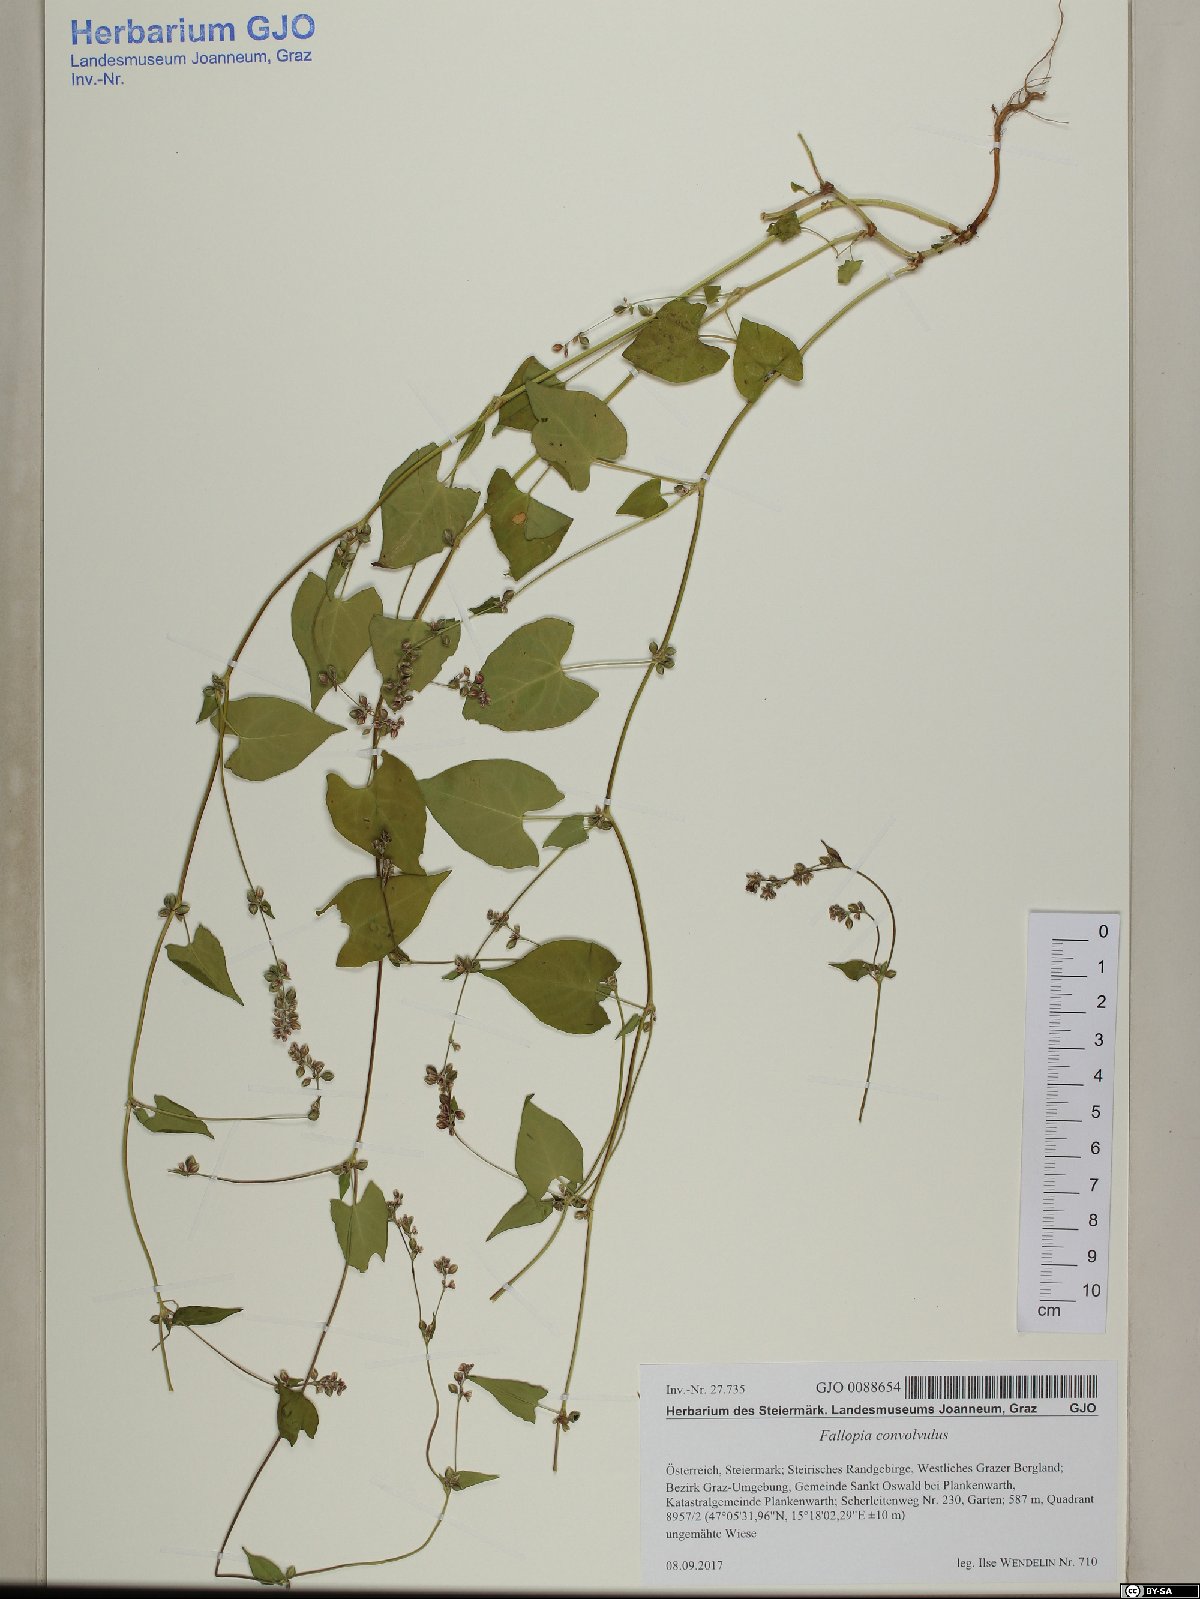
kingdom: Plantae
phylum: Tracheophyta
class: Magnoliopsida
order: Caryophyllales
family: Polygonaceae
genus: Fallopia
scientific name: Fallopia convolvulus
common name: Black bindweed
